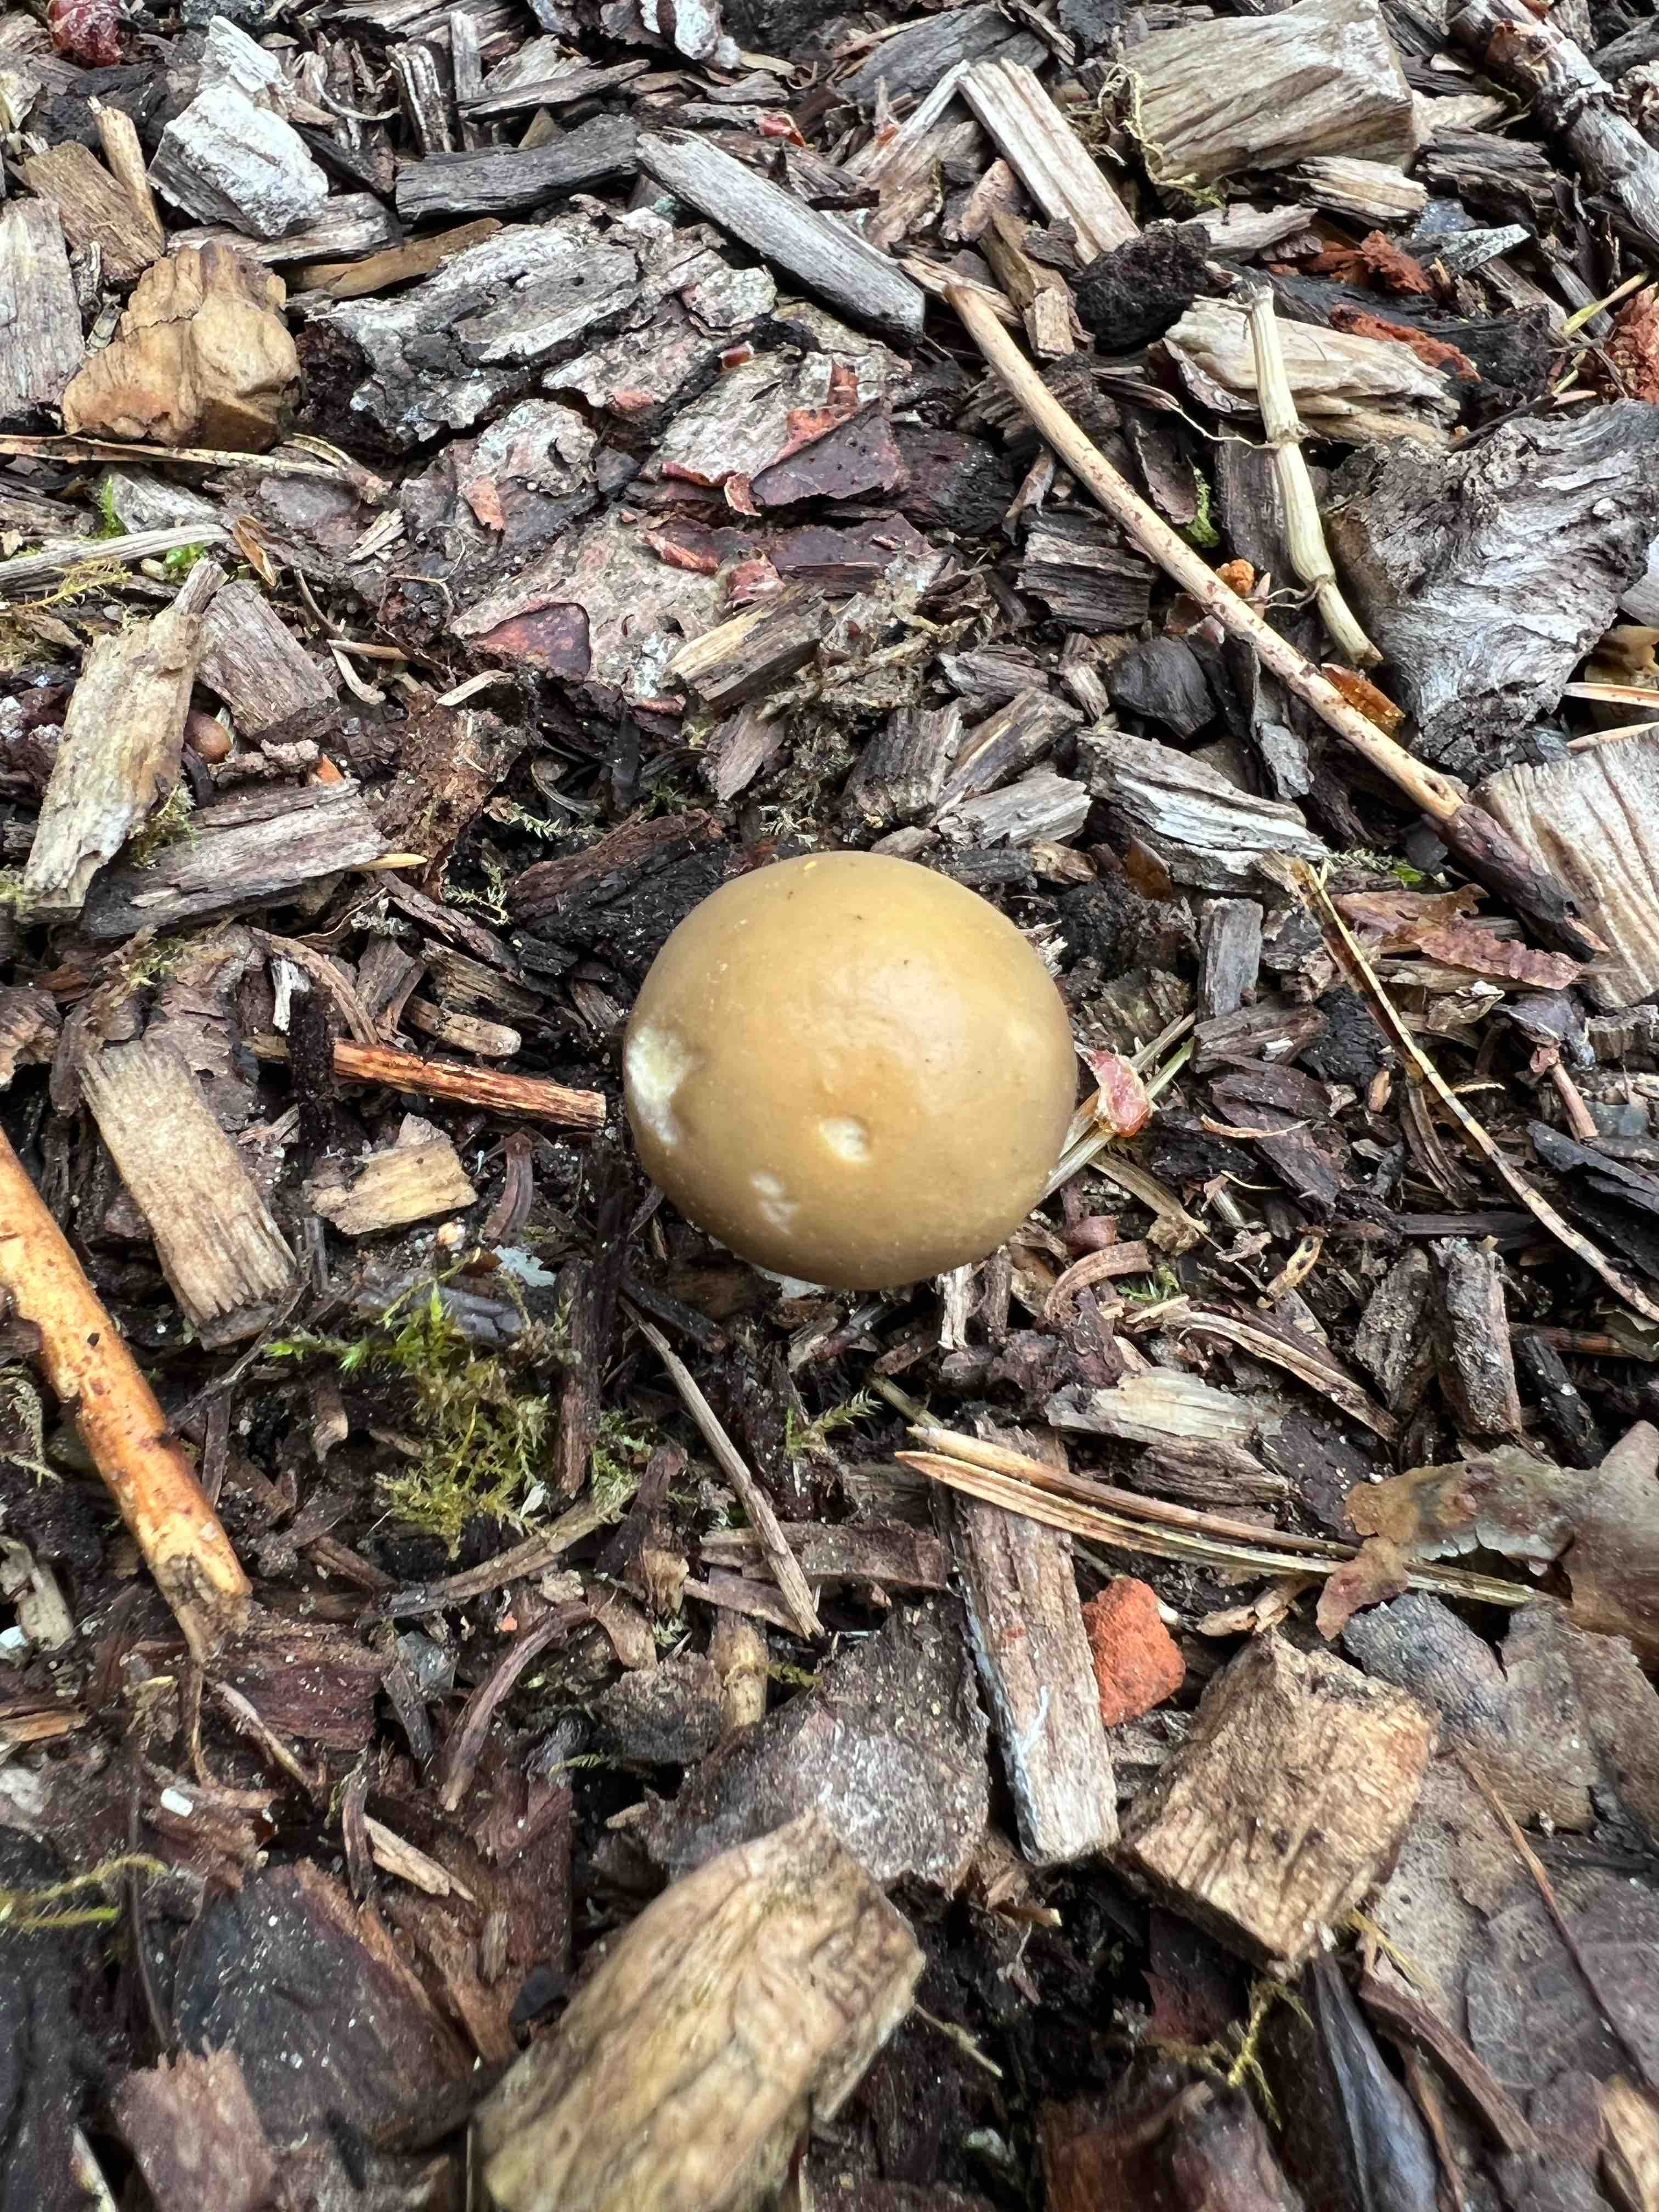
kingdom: Fungi
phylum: Basidiomycota
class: Agaricomycetes
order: Agaricales
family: Strophariaceae
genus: Agrocybe
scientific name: Agrocybe praecox
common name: tidlig agerhat
